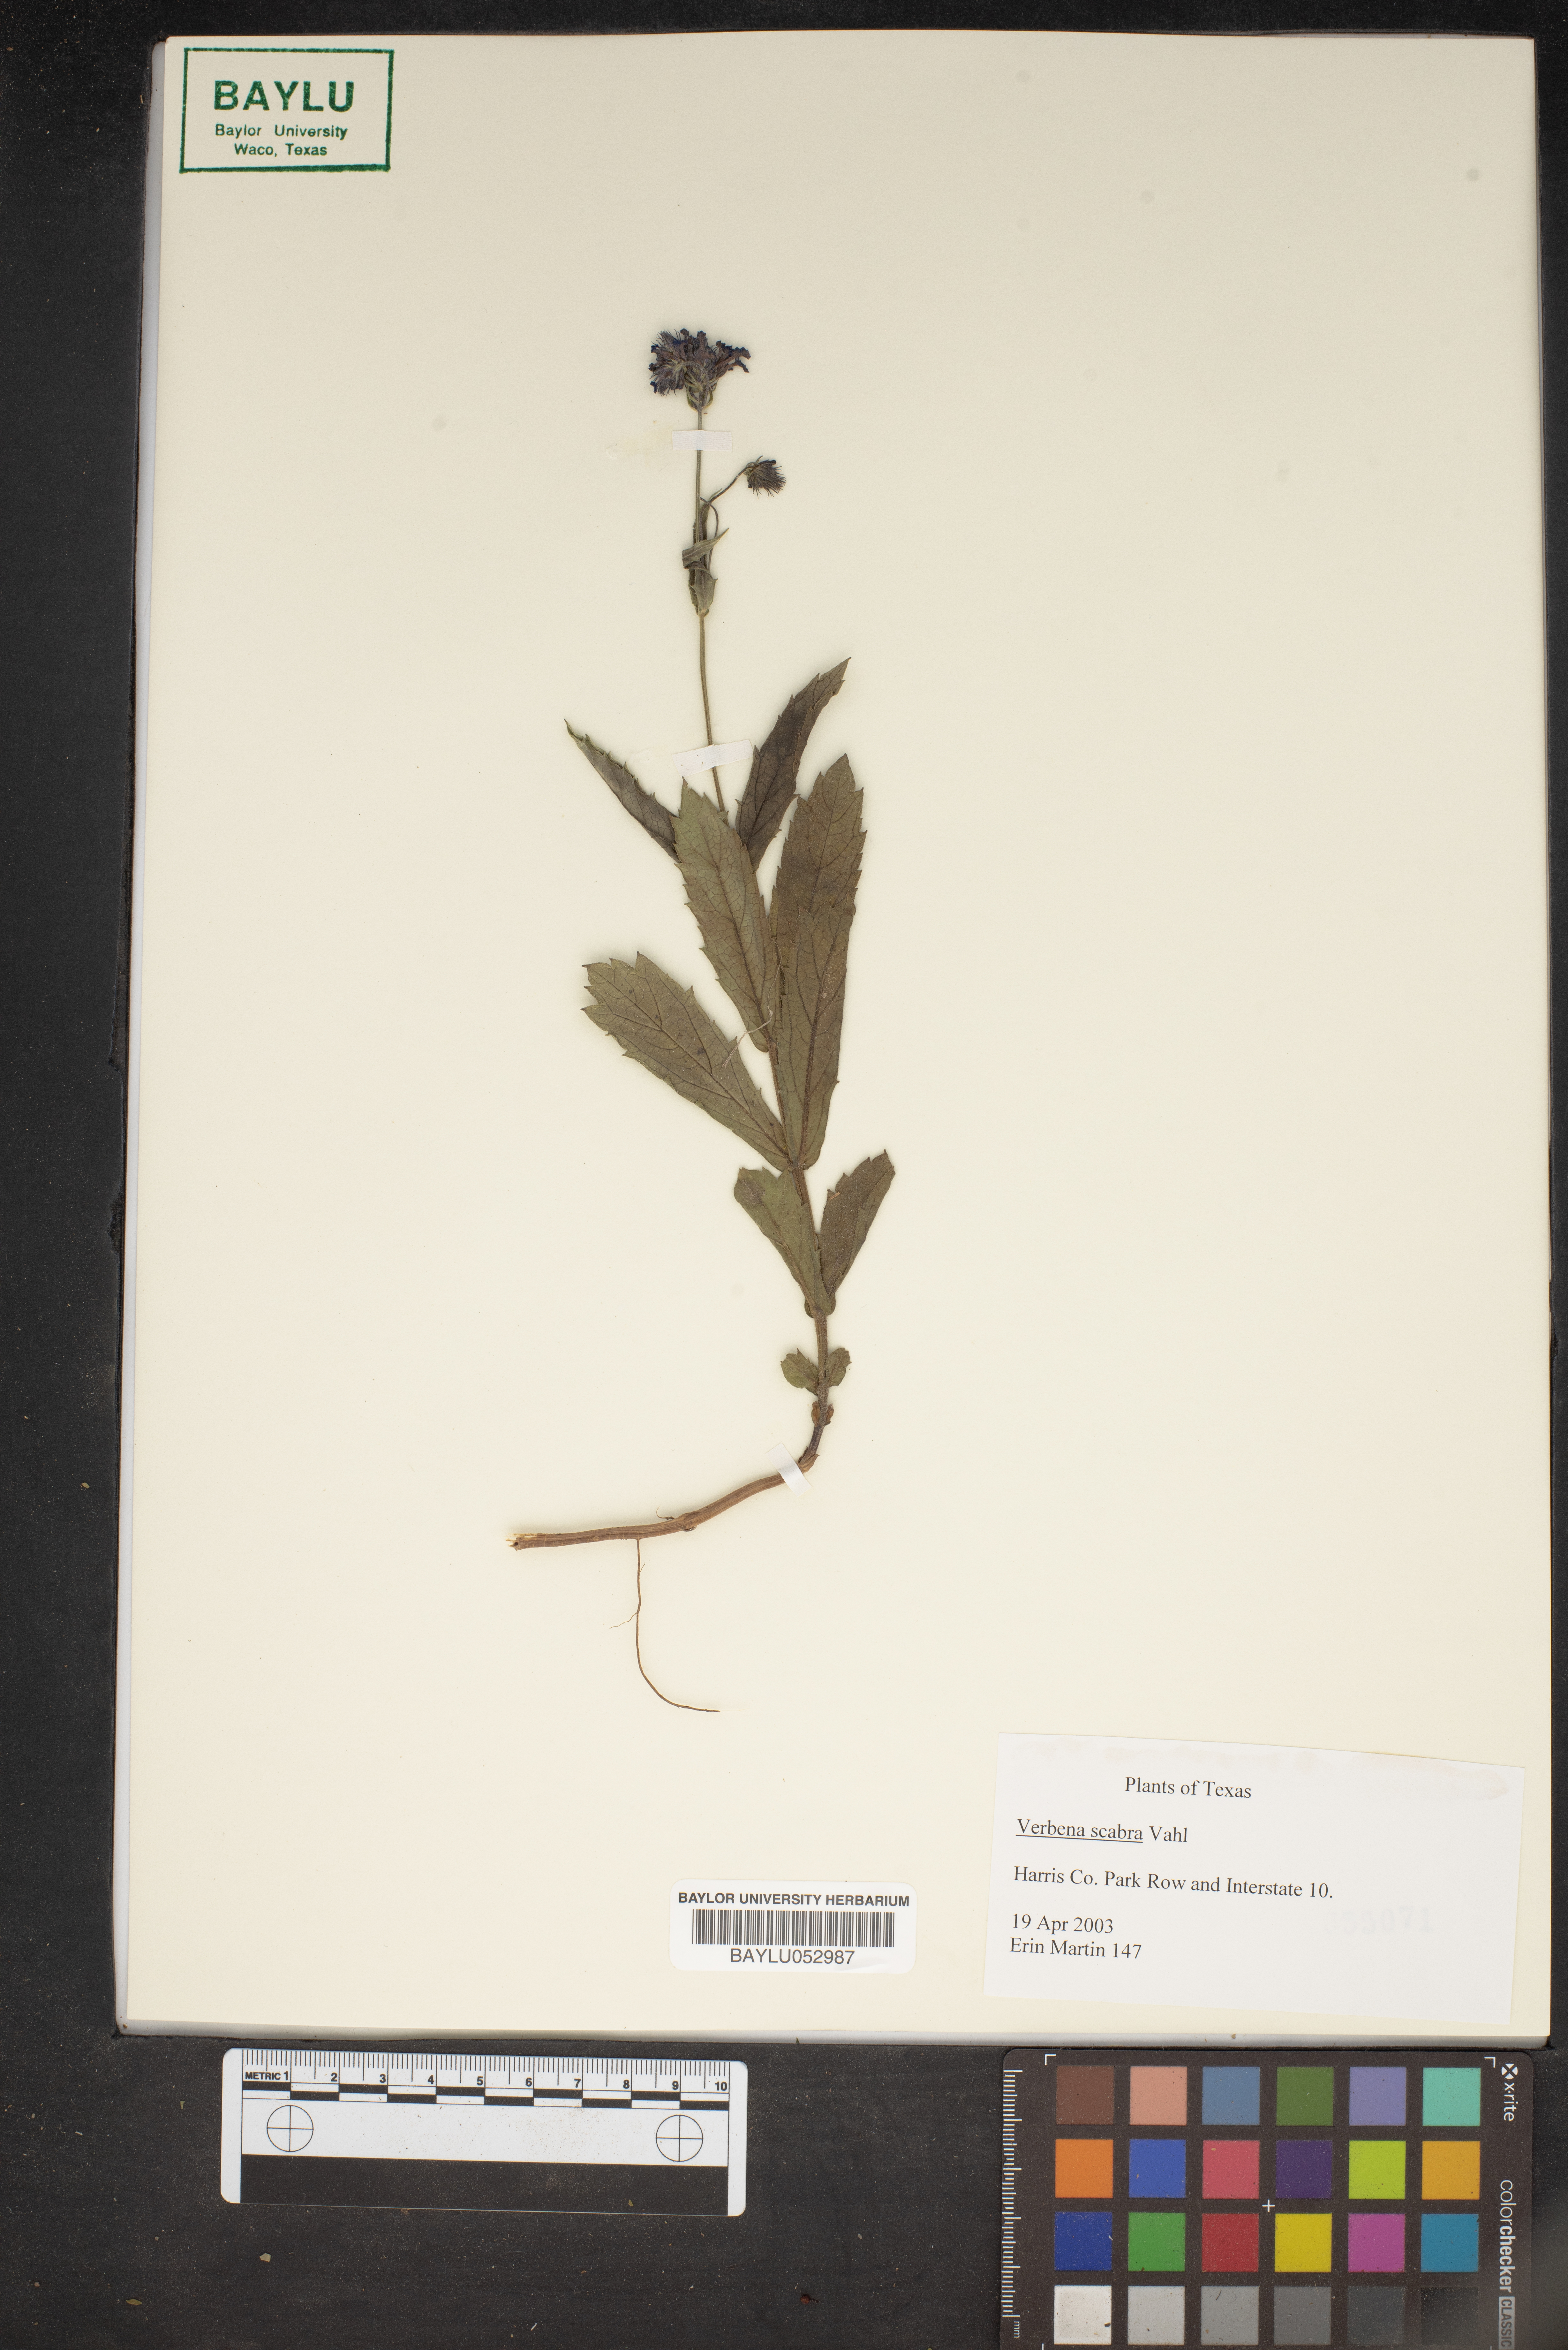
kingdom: Plantae
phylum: Tracheophyta
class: Magnoliopsida
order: Lamiales
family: Verbenaceae
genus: Verbena
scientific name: Verbena scabra
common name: Sandpaper vervain
